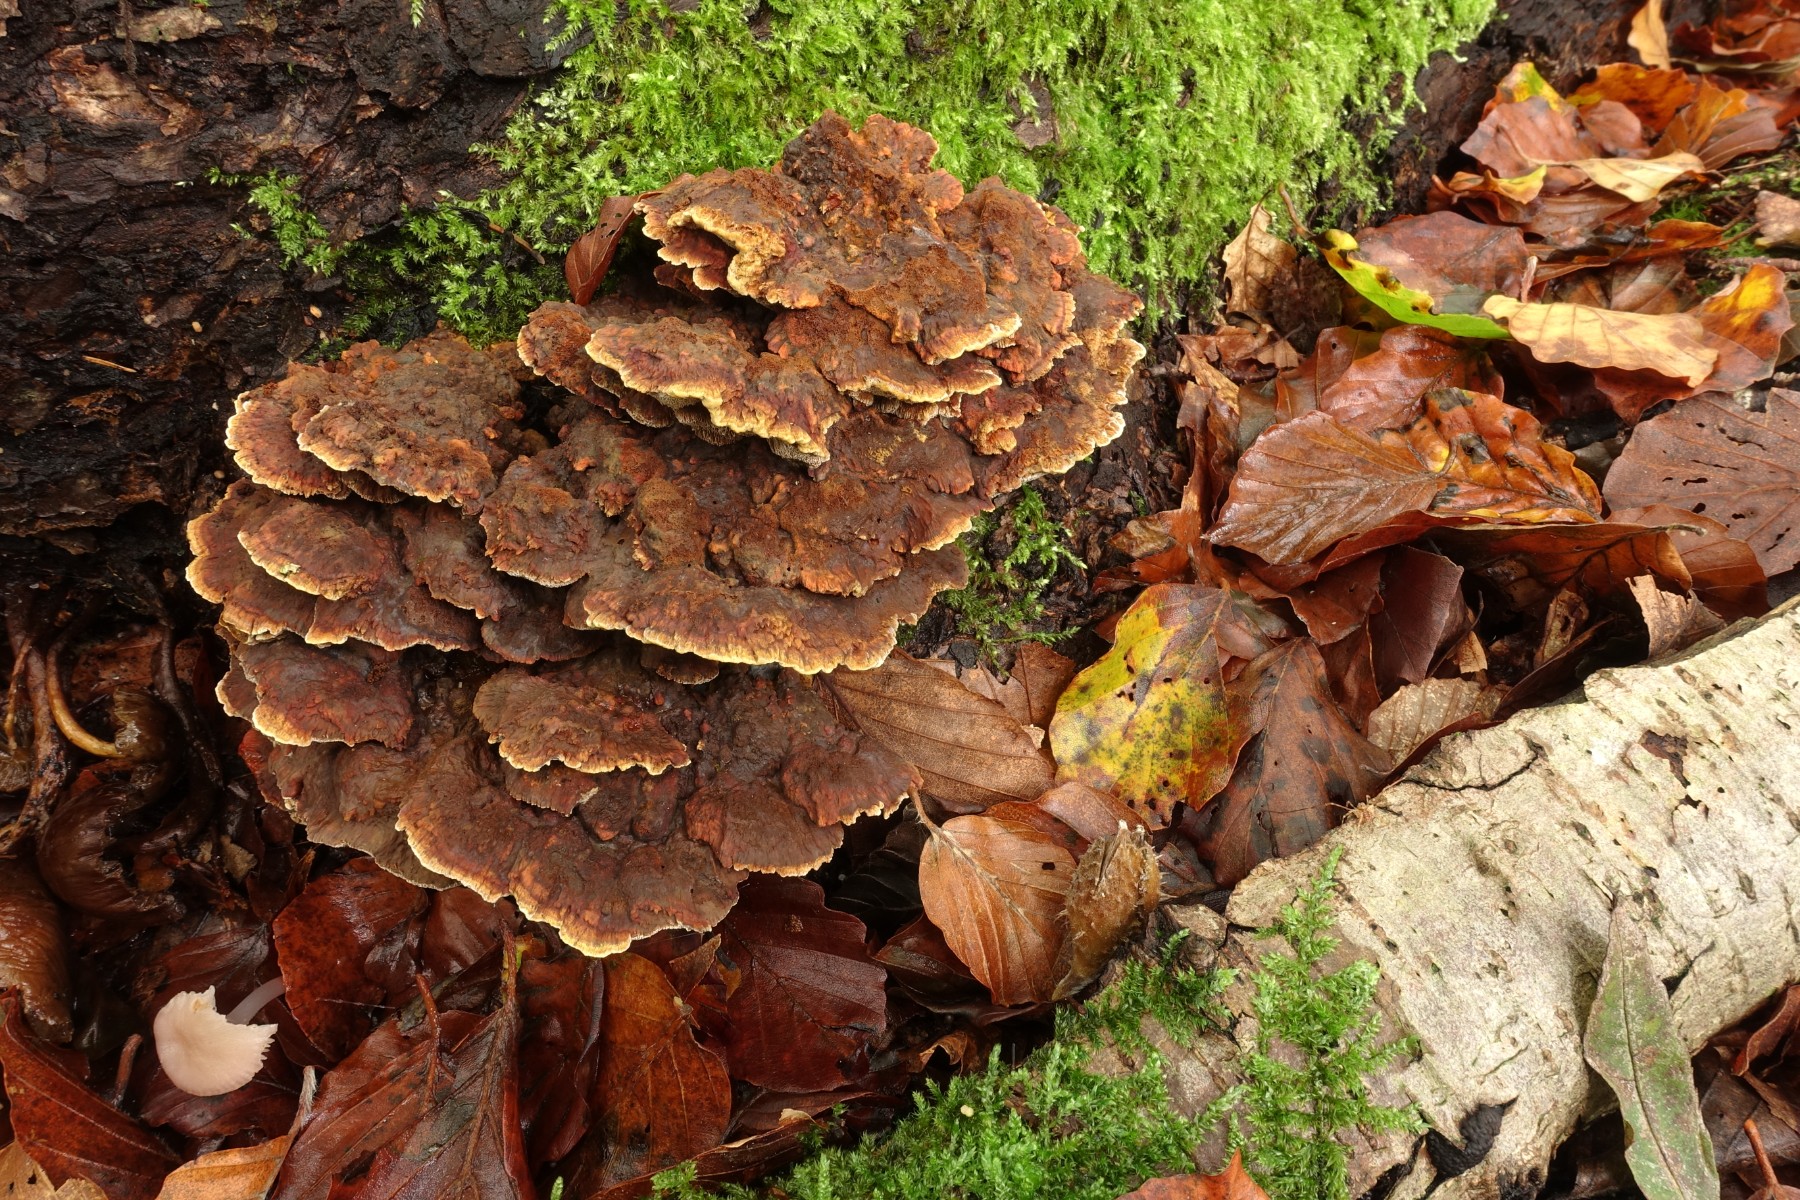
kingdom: Fungi
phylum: Basidiomycota
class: Agaricomycetes
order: Hymenochaetales
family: Hymenochaetaceae
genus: Mensularia
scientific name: Mensularia nodulosa
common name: bøge-spejlporesvamp
